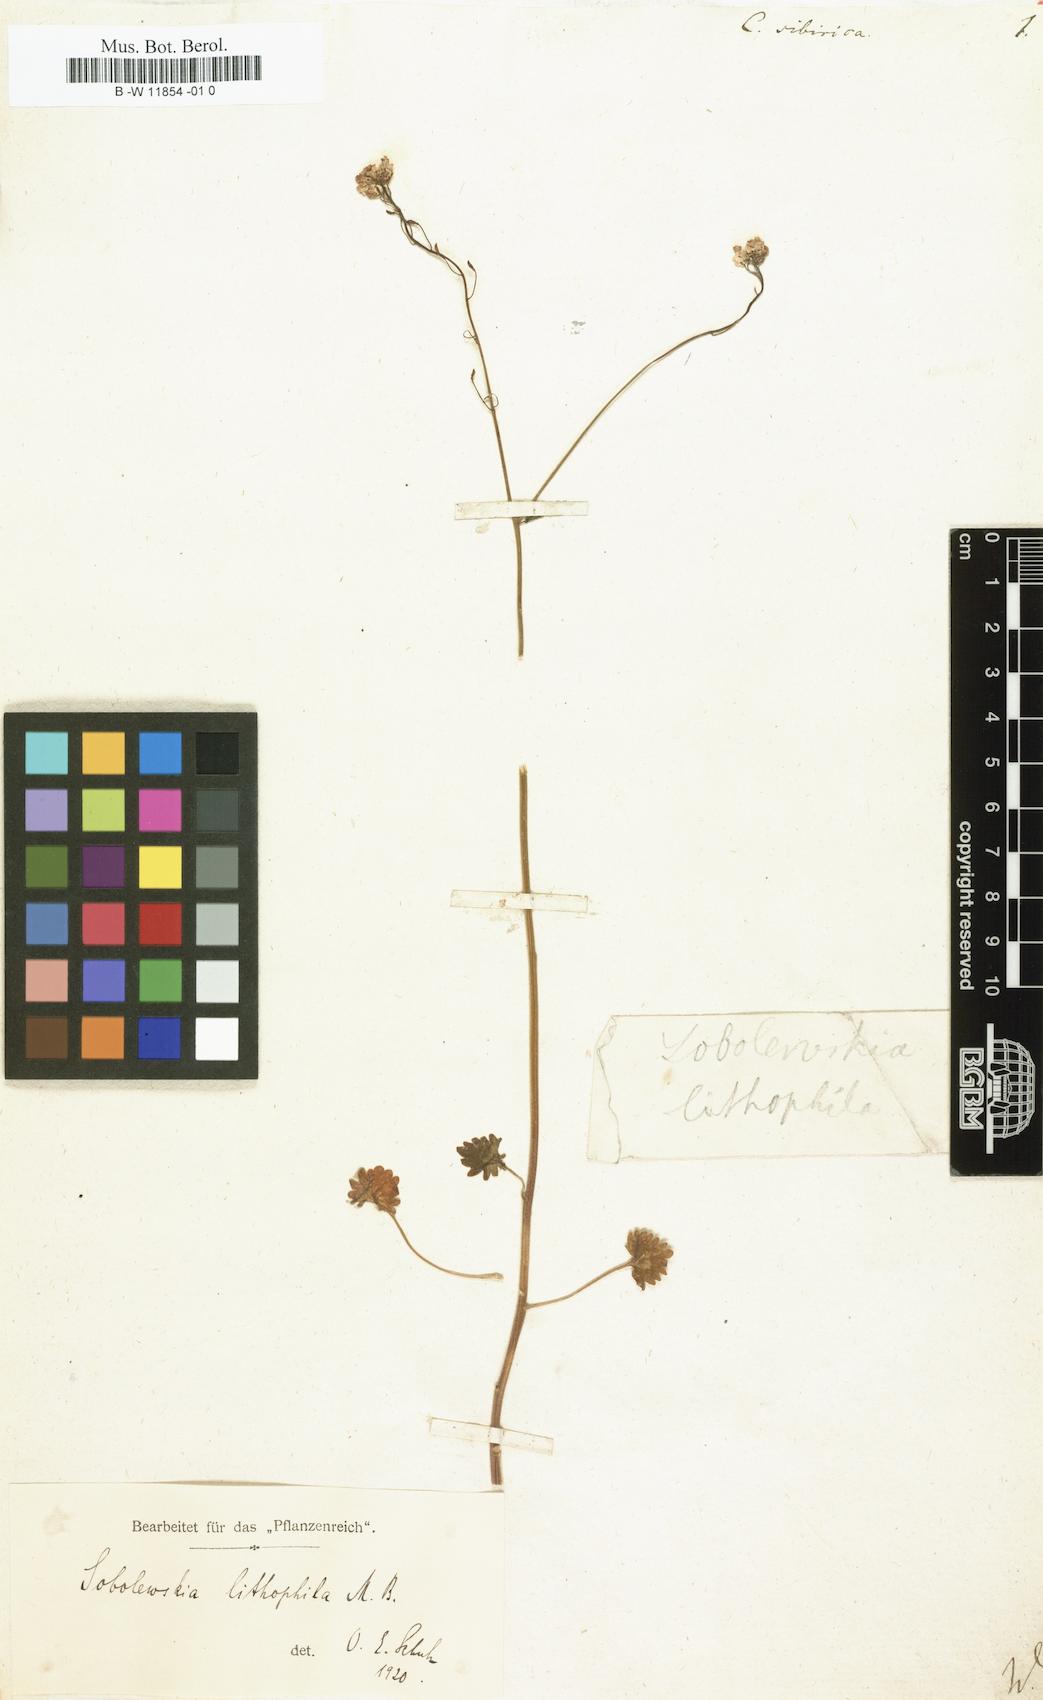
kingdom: Plantae
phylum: Tracheophyta
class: Magnoliopsida
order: Brassicales
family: Brassicaceae
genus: Sobolewskia
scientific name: Sobolewskia sibirica
